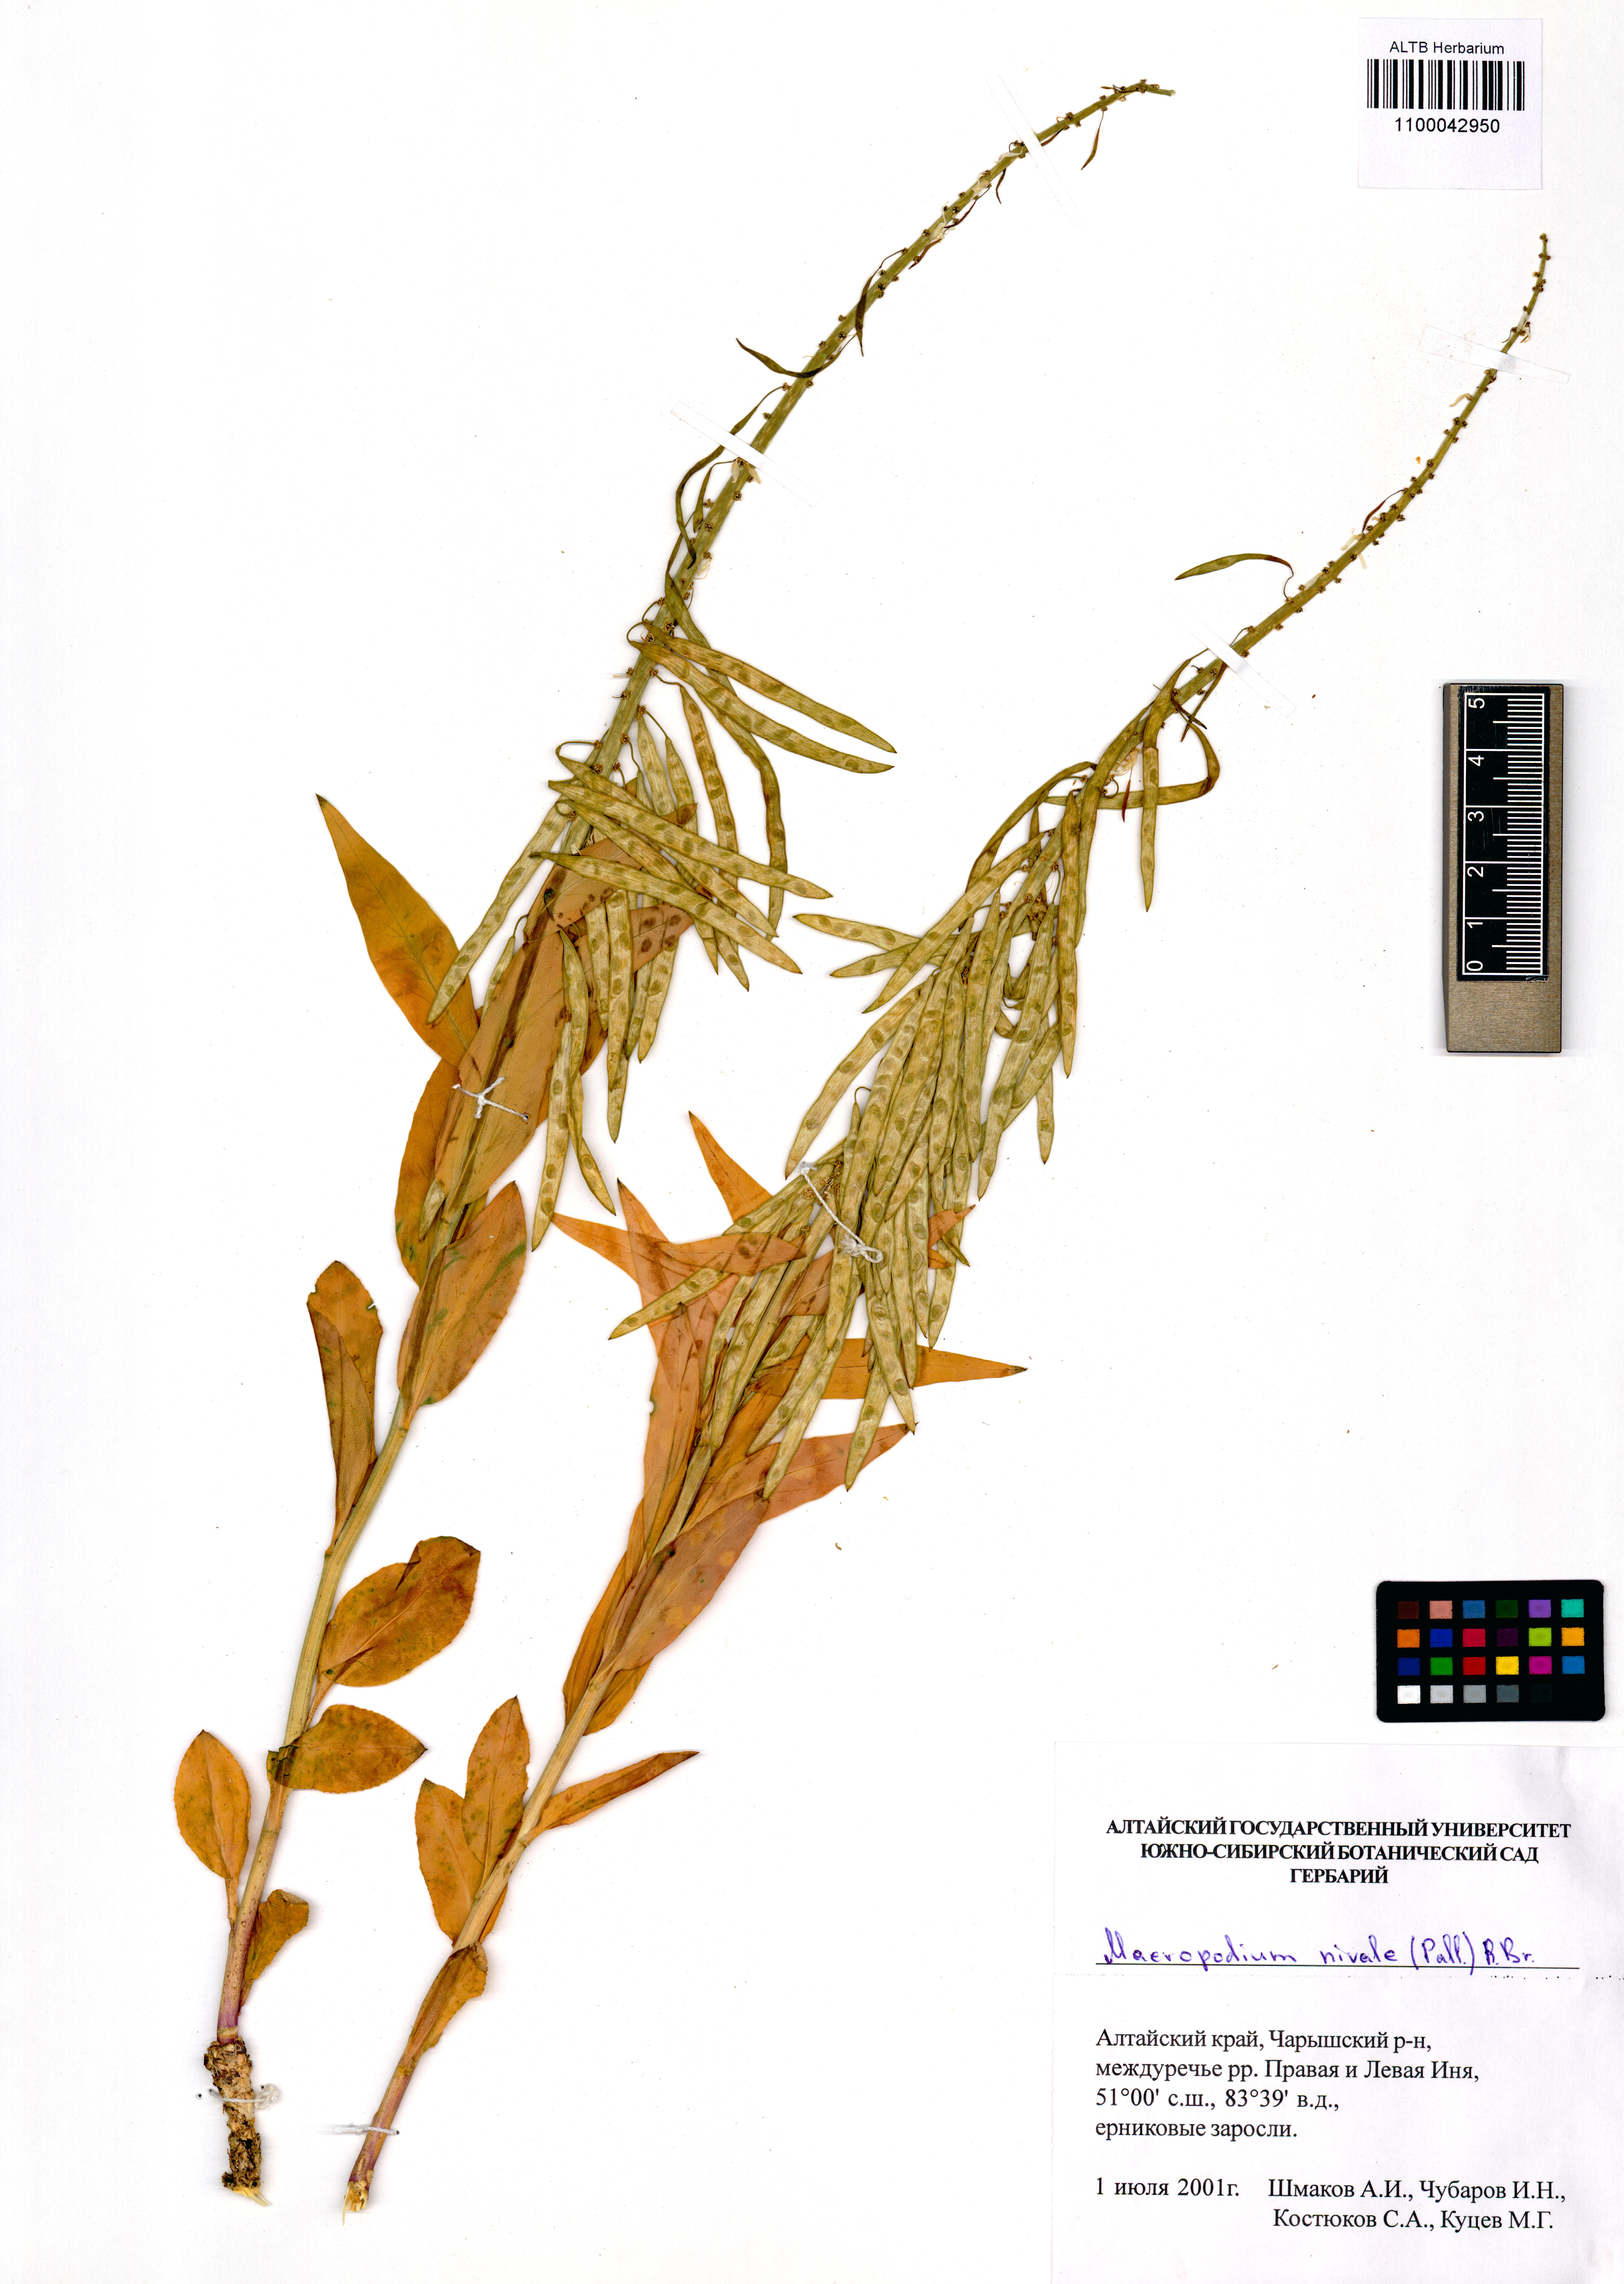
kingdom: Plantae
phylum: Tracheophyta
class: Magnoliopsida
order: Brassicales
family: Brassicaceae
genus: Macropodium
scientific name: Macropodium nivale
